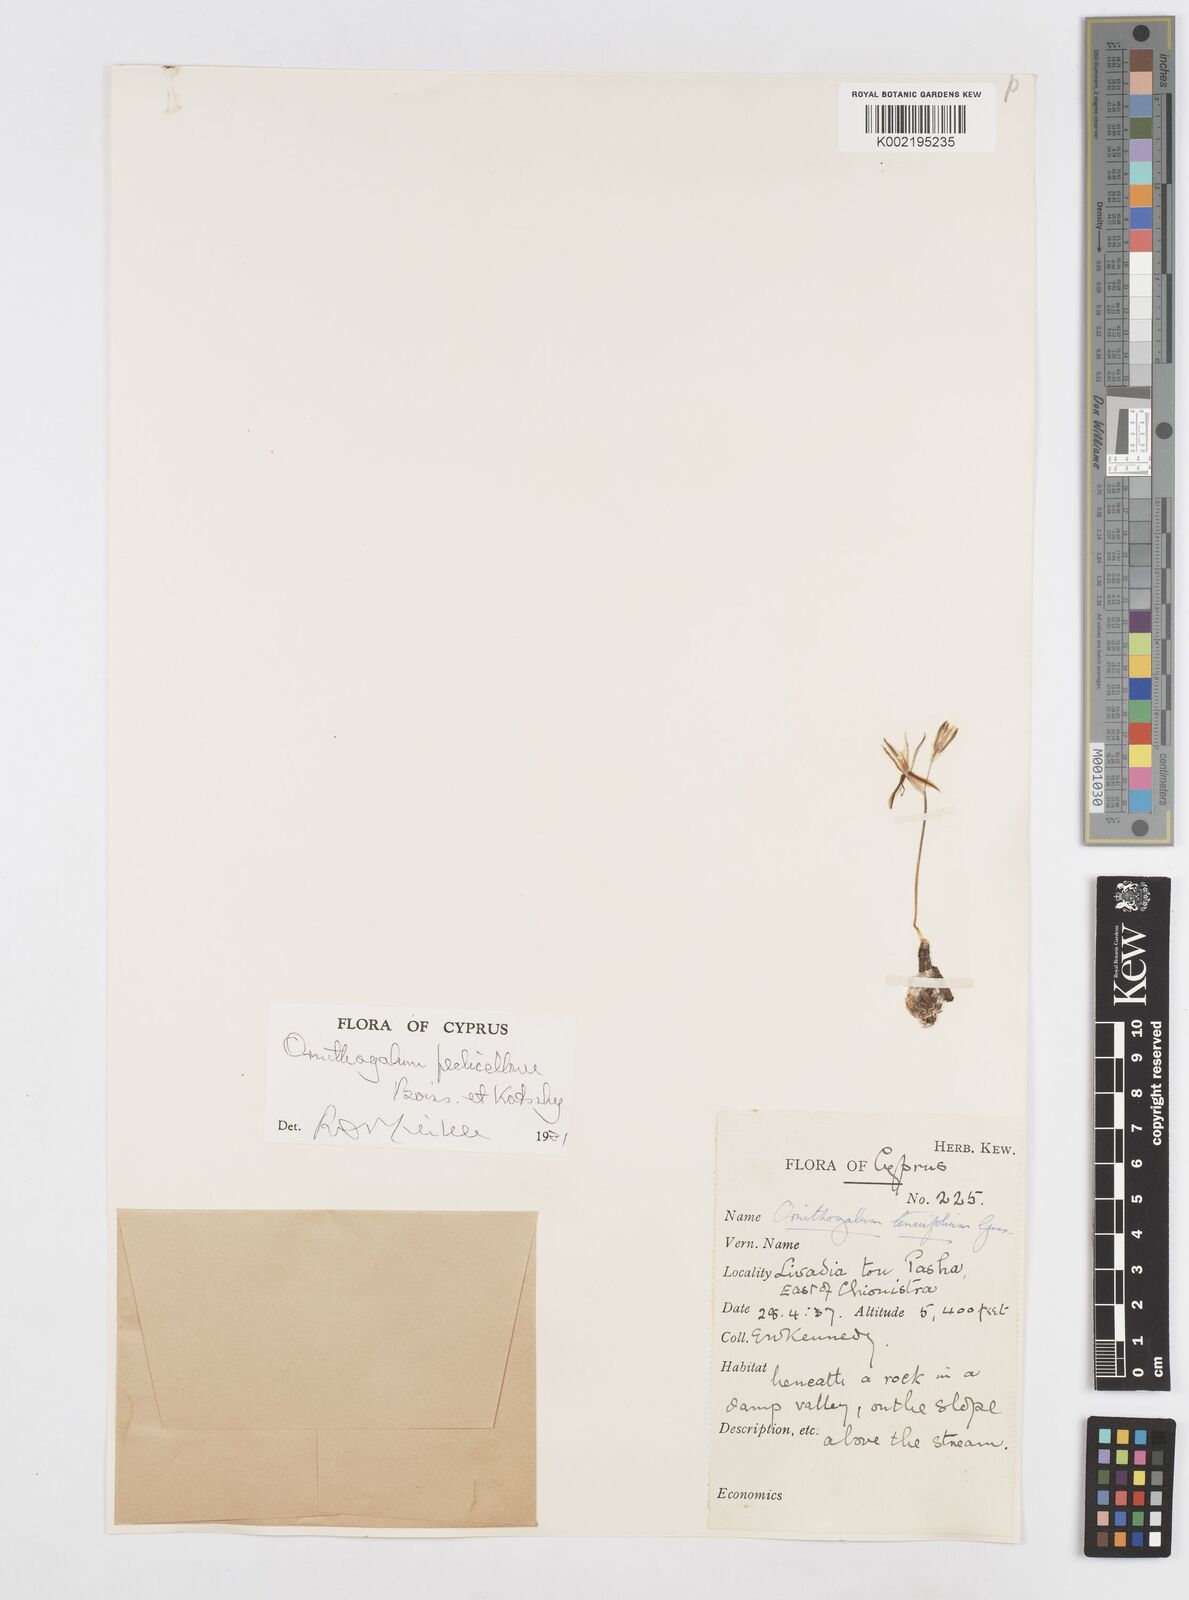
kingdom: Plantae
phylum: Tracheophyta
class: Liliopsida
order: Asparagales
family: Asparagaceae
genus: Ornithogalum
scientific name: Ornithogalum
